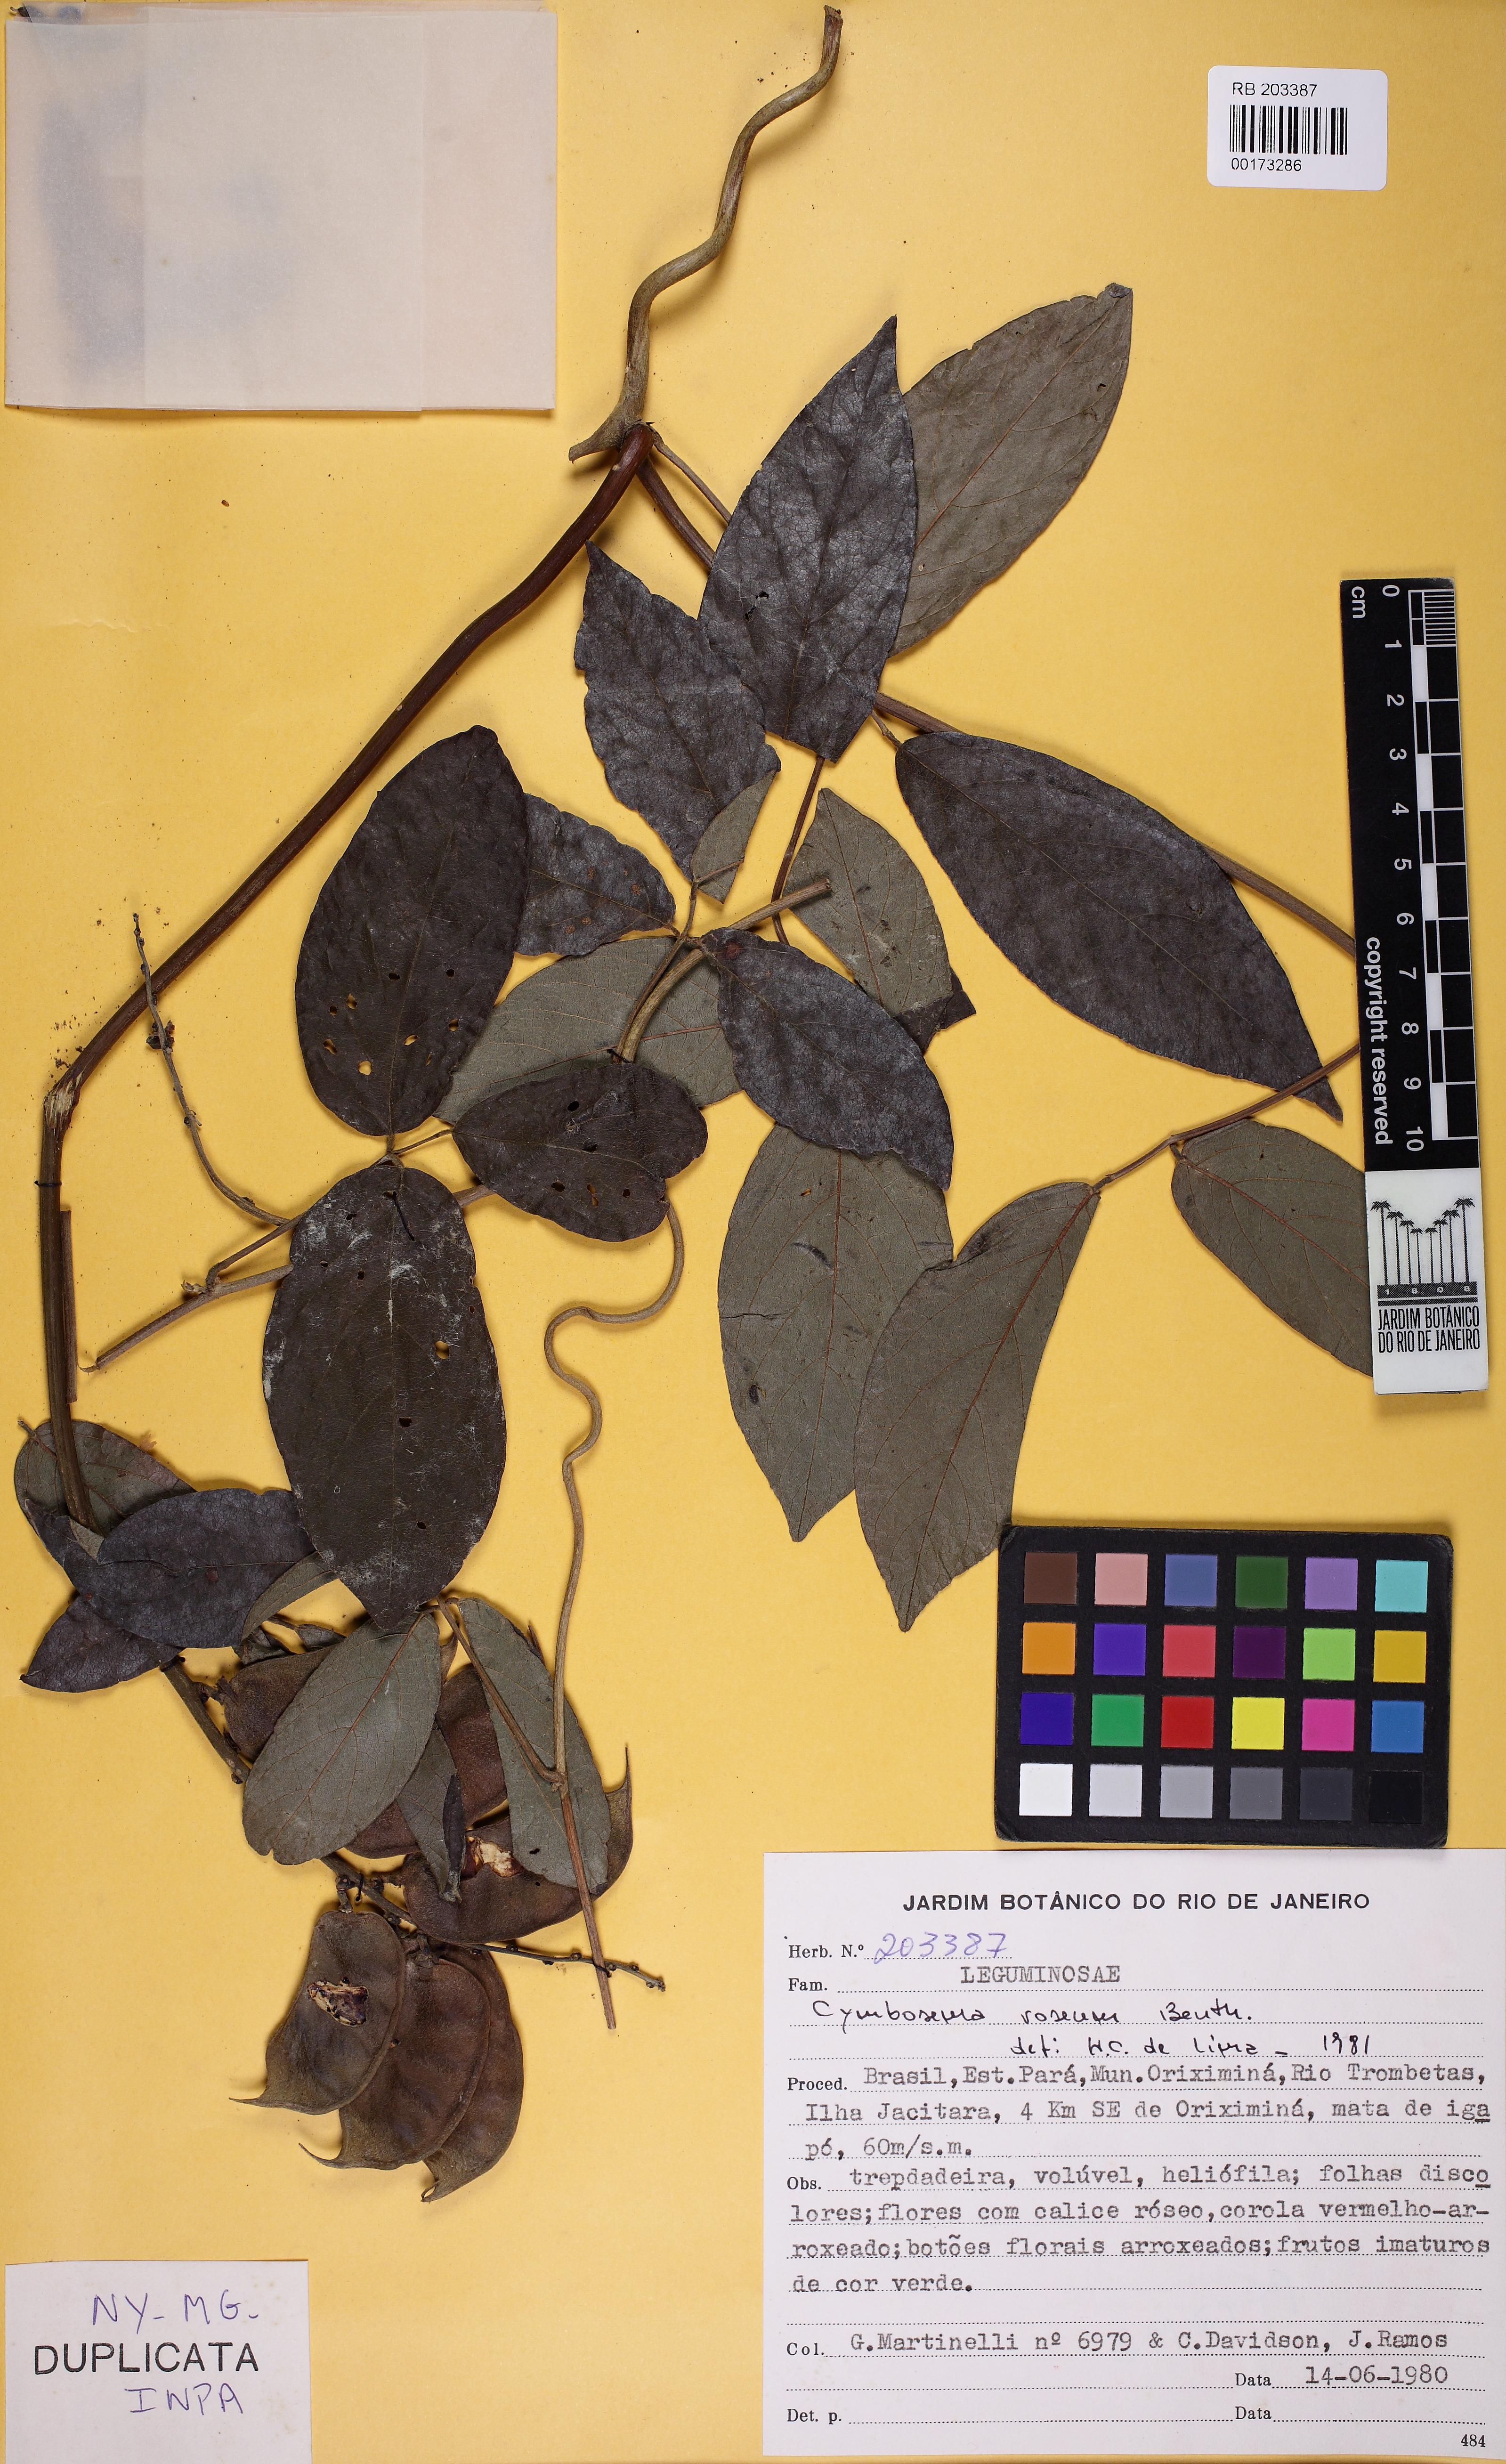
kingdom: Plantae
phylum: Tracheophyta
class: Magnoliopsida
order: Fabales
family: Fabaceae
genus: Cymbosema
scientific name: Cymbosema roseum
